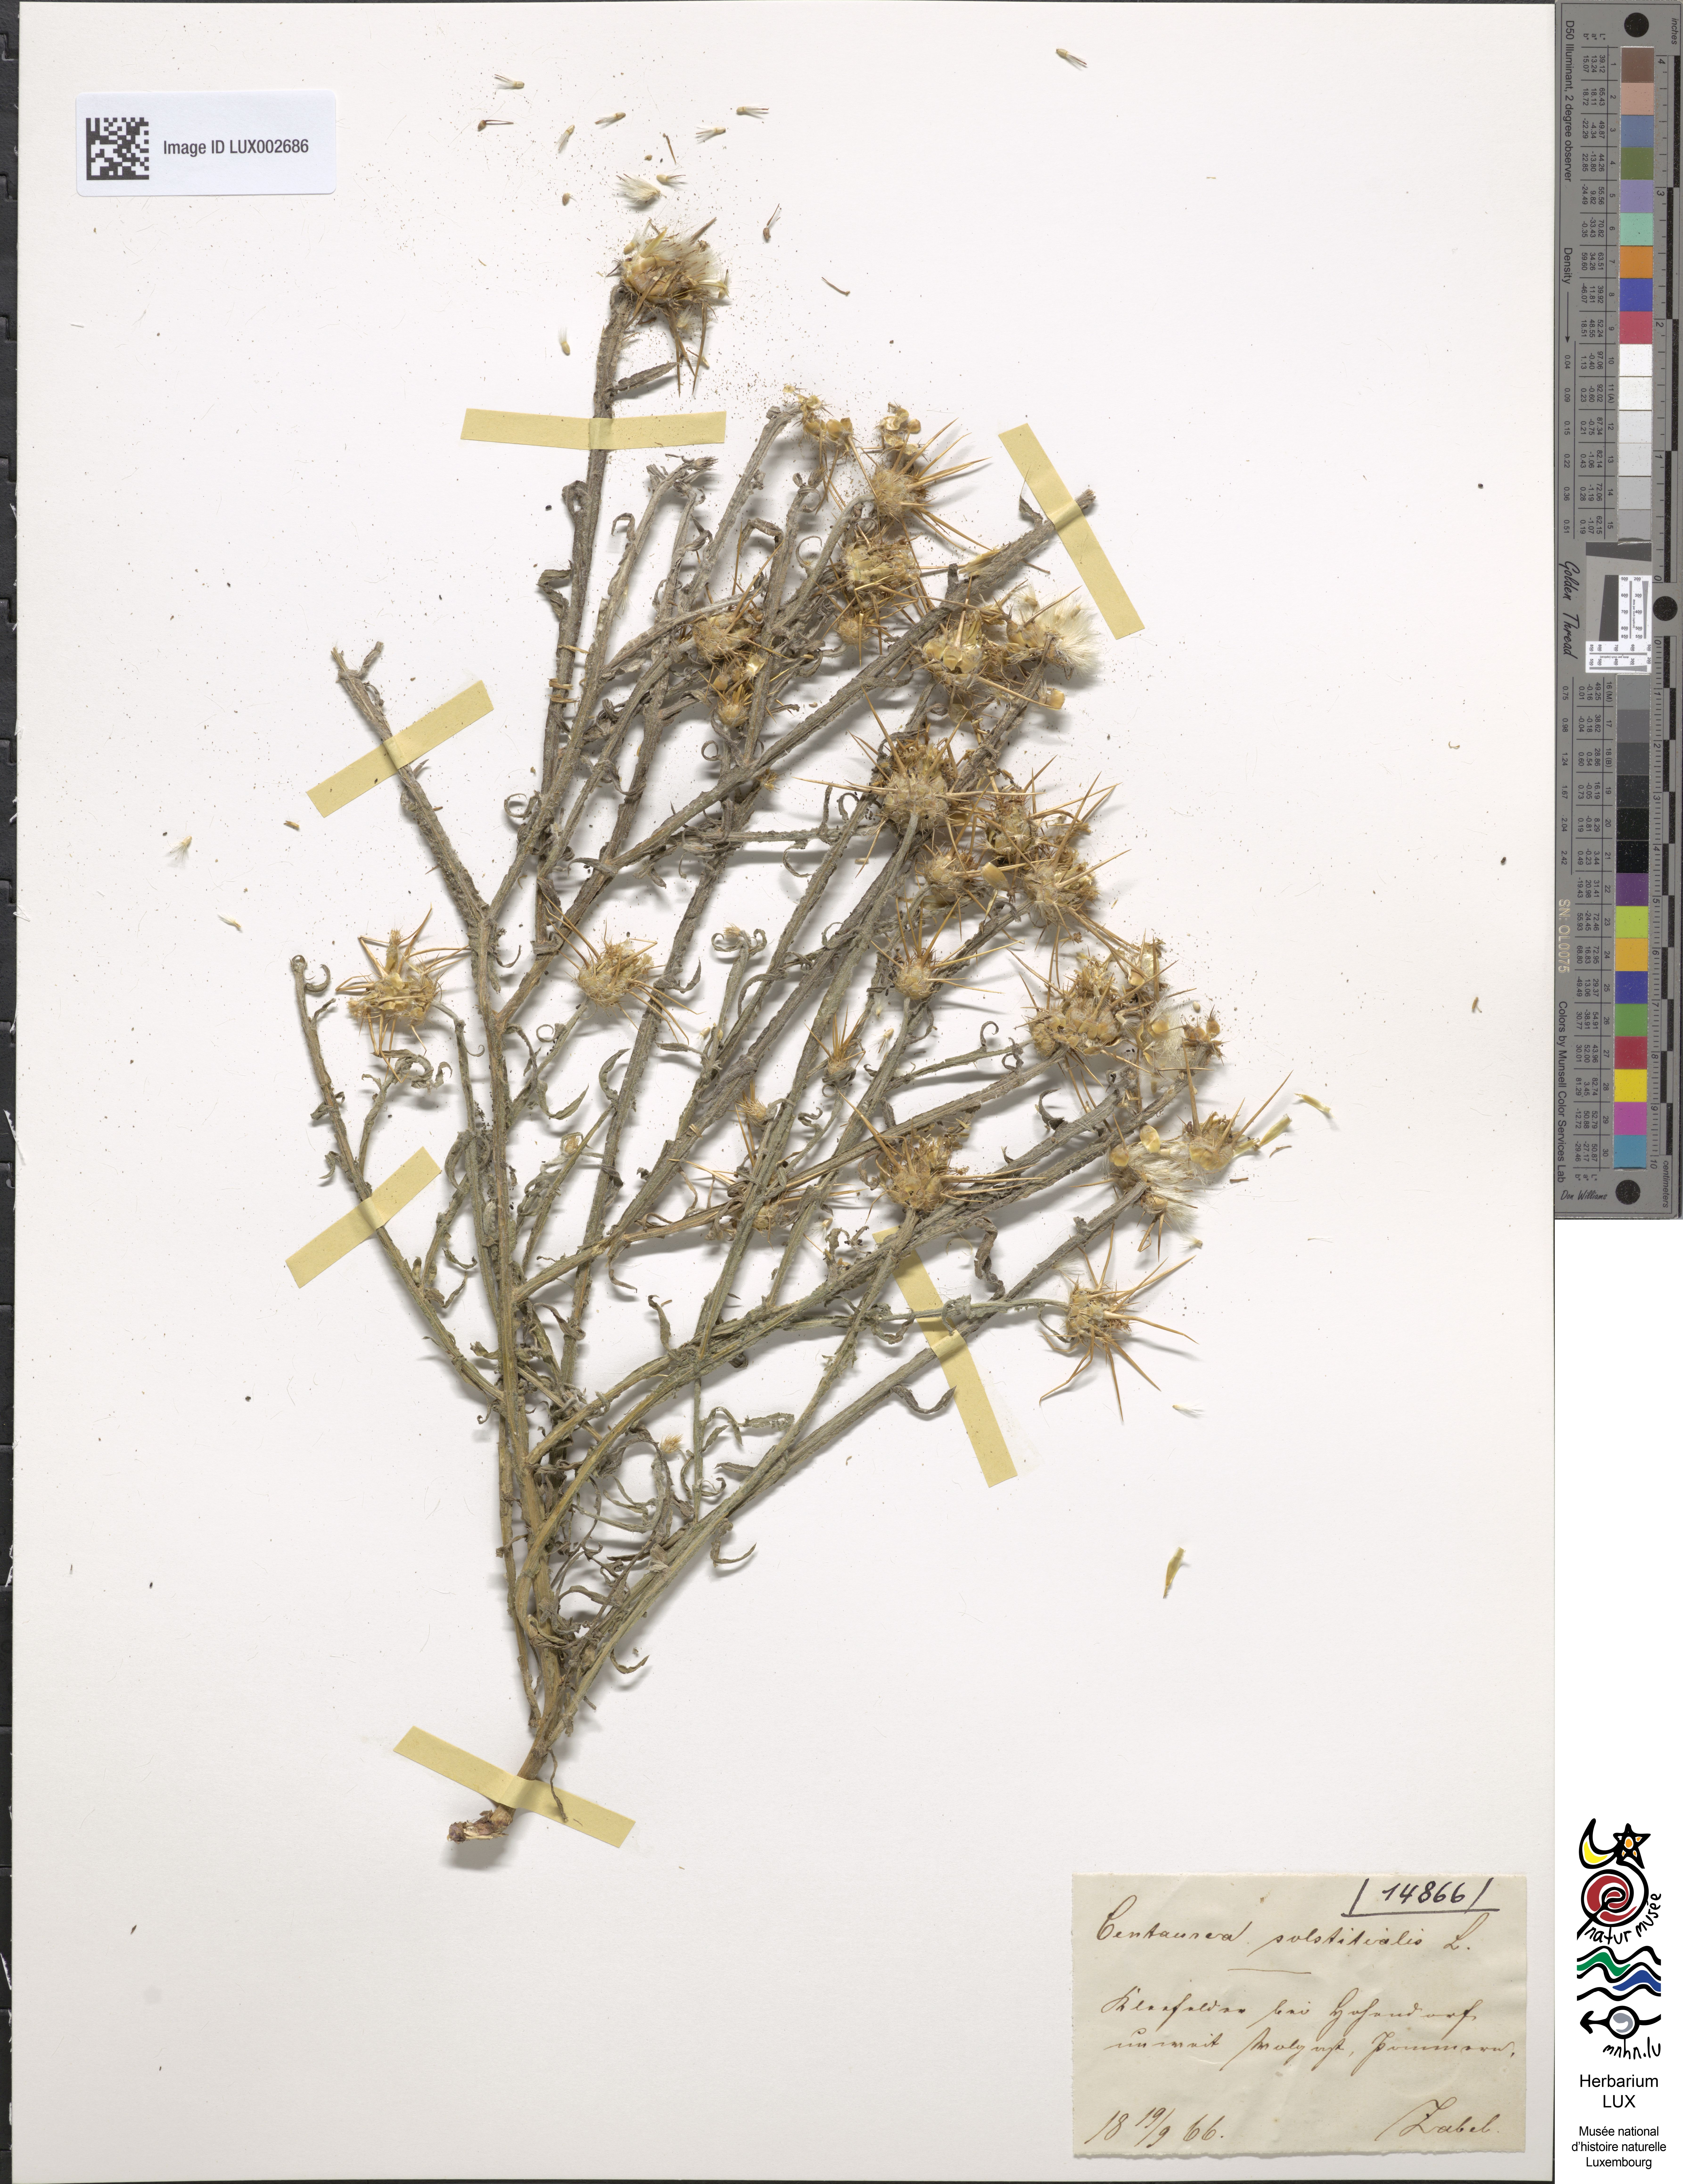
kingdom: Plantae
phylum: Tracheophyta
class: Magnoliopsida
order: Asterales
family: Asteraceae
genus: Centaurea
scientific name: Centaurea solstitialis
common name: Yellow star-thistle
